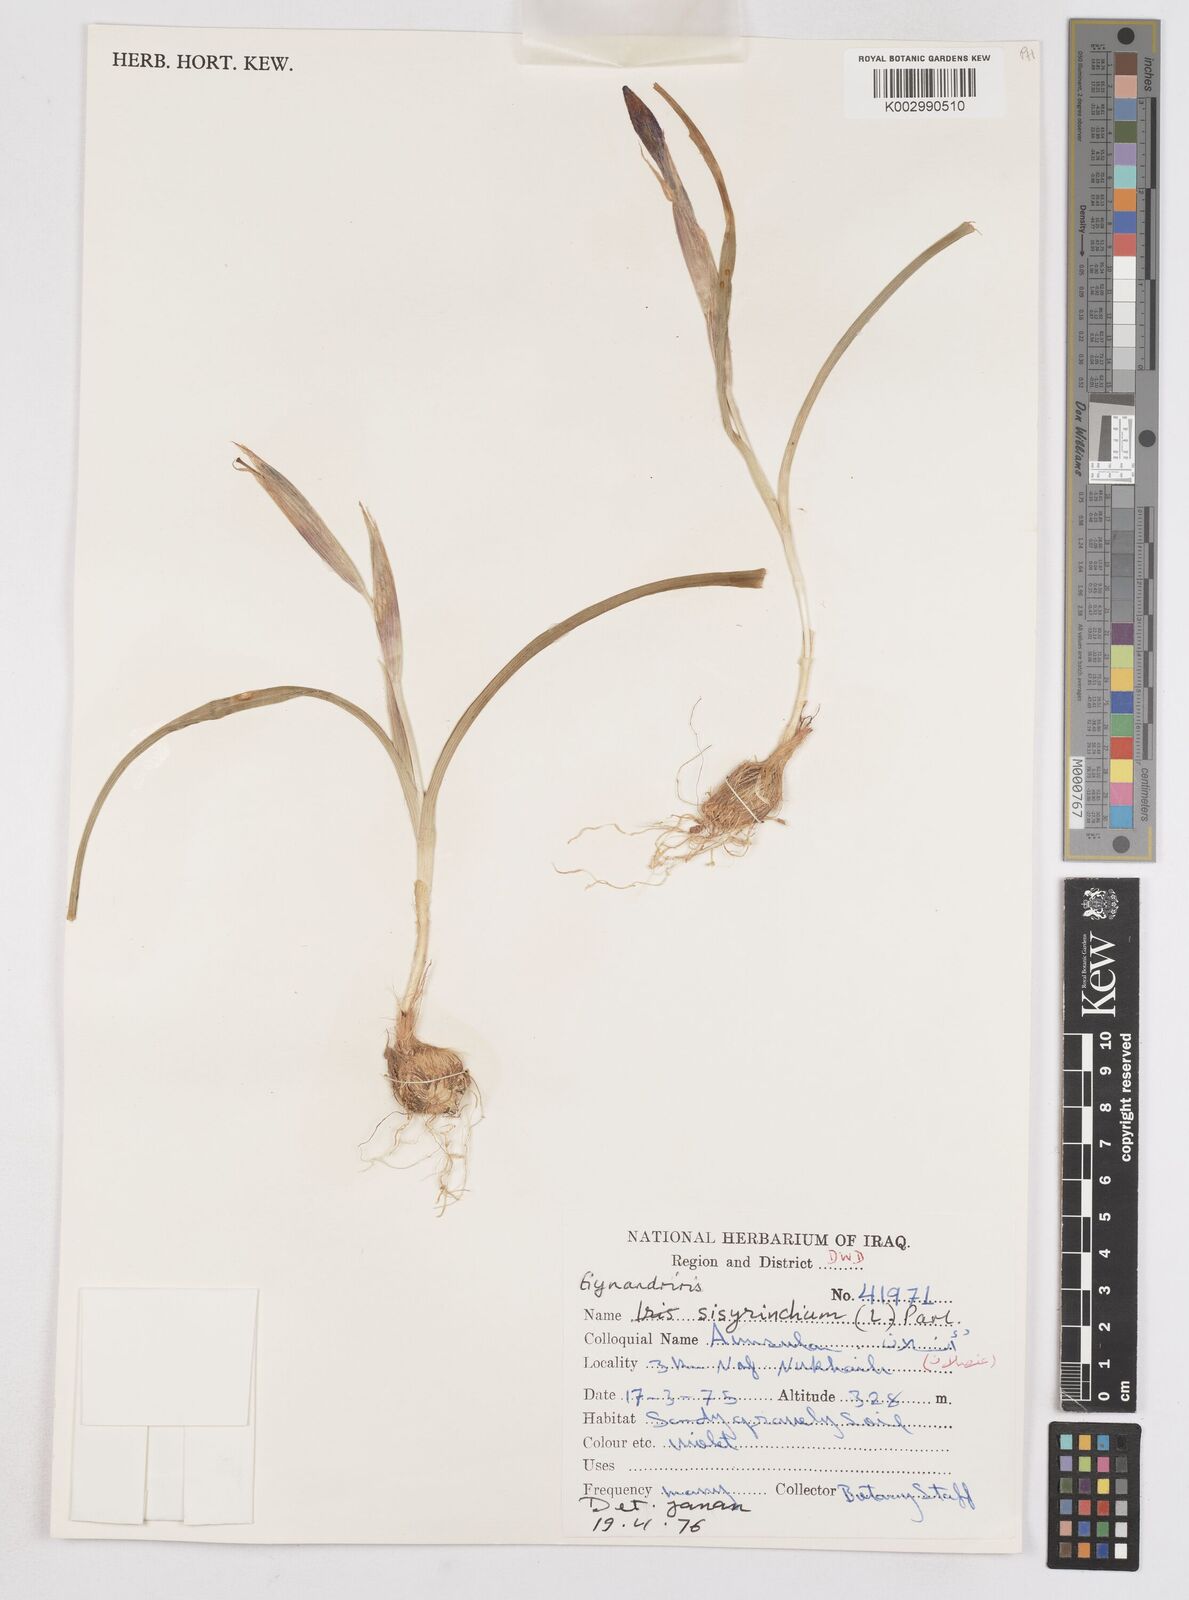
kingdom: Plantae
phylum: Tracheophyta
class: Liliopsida
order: Asparagales
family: Iridaceae
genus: Moraea
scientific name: Moraea sisyrinchium
